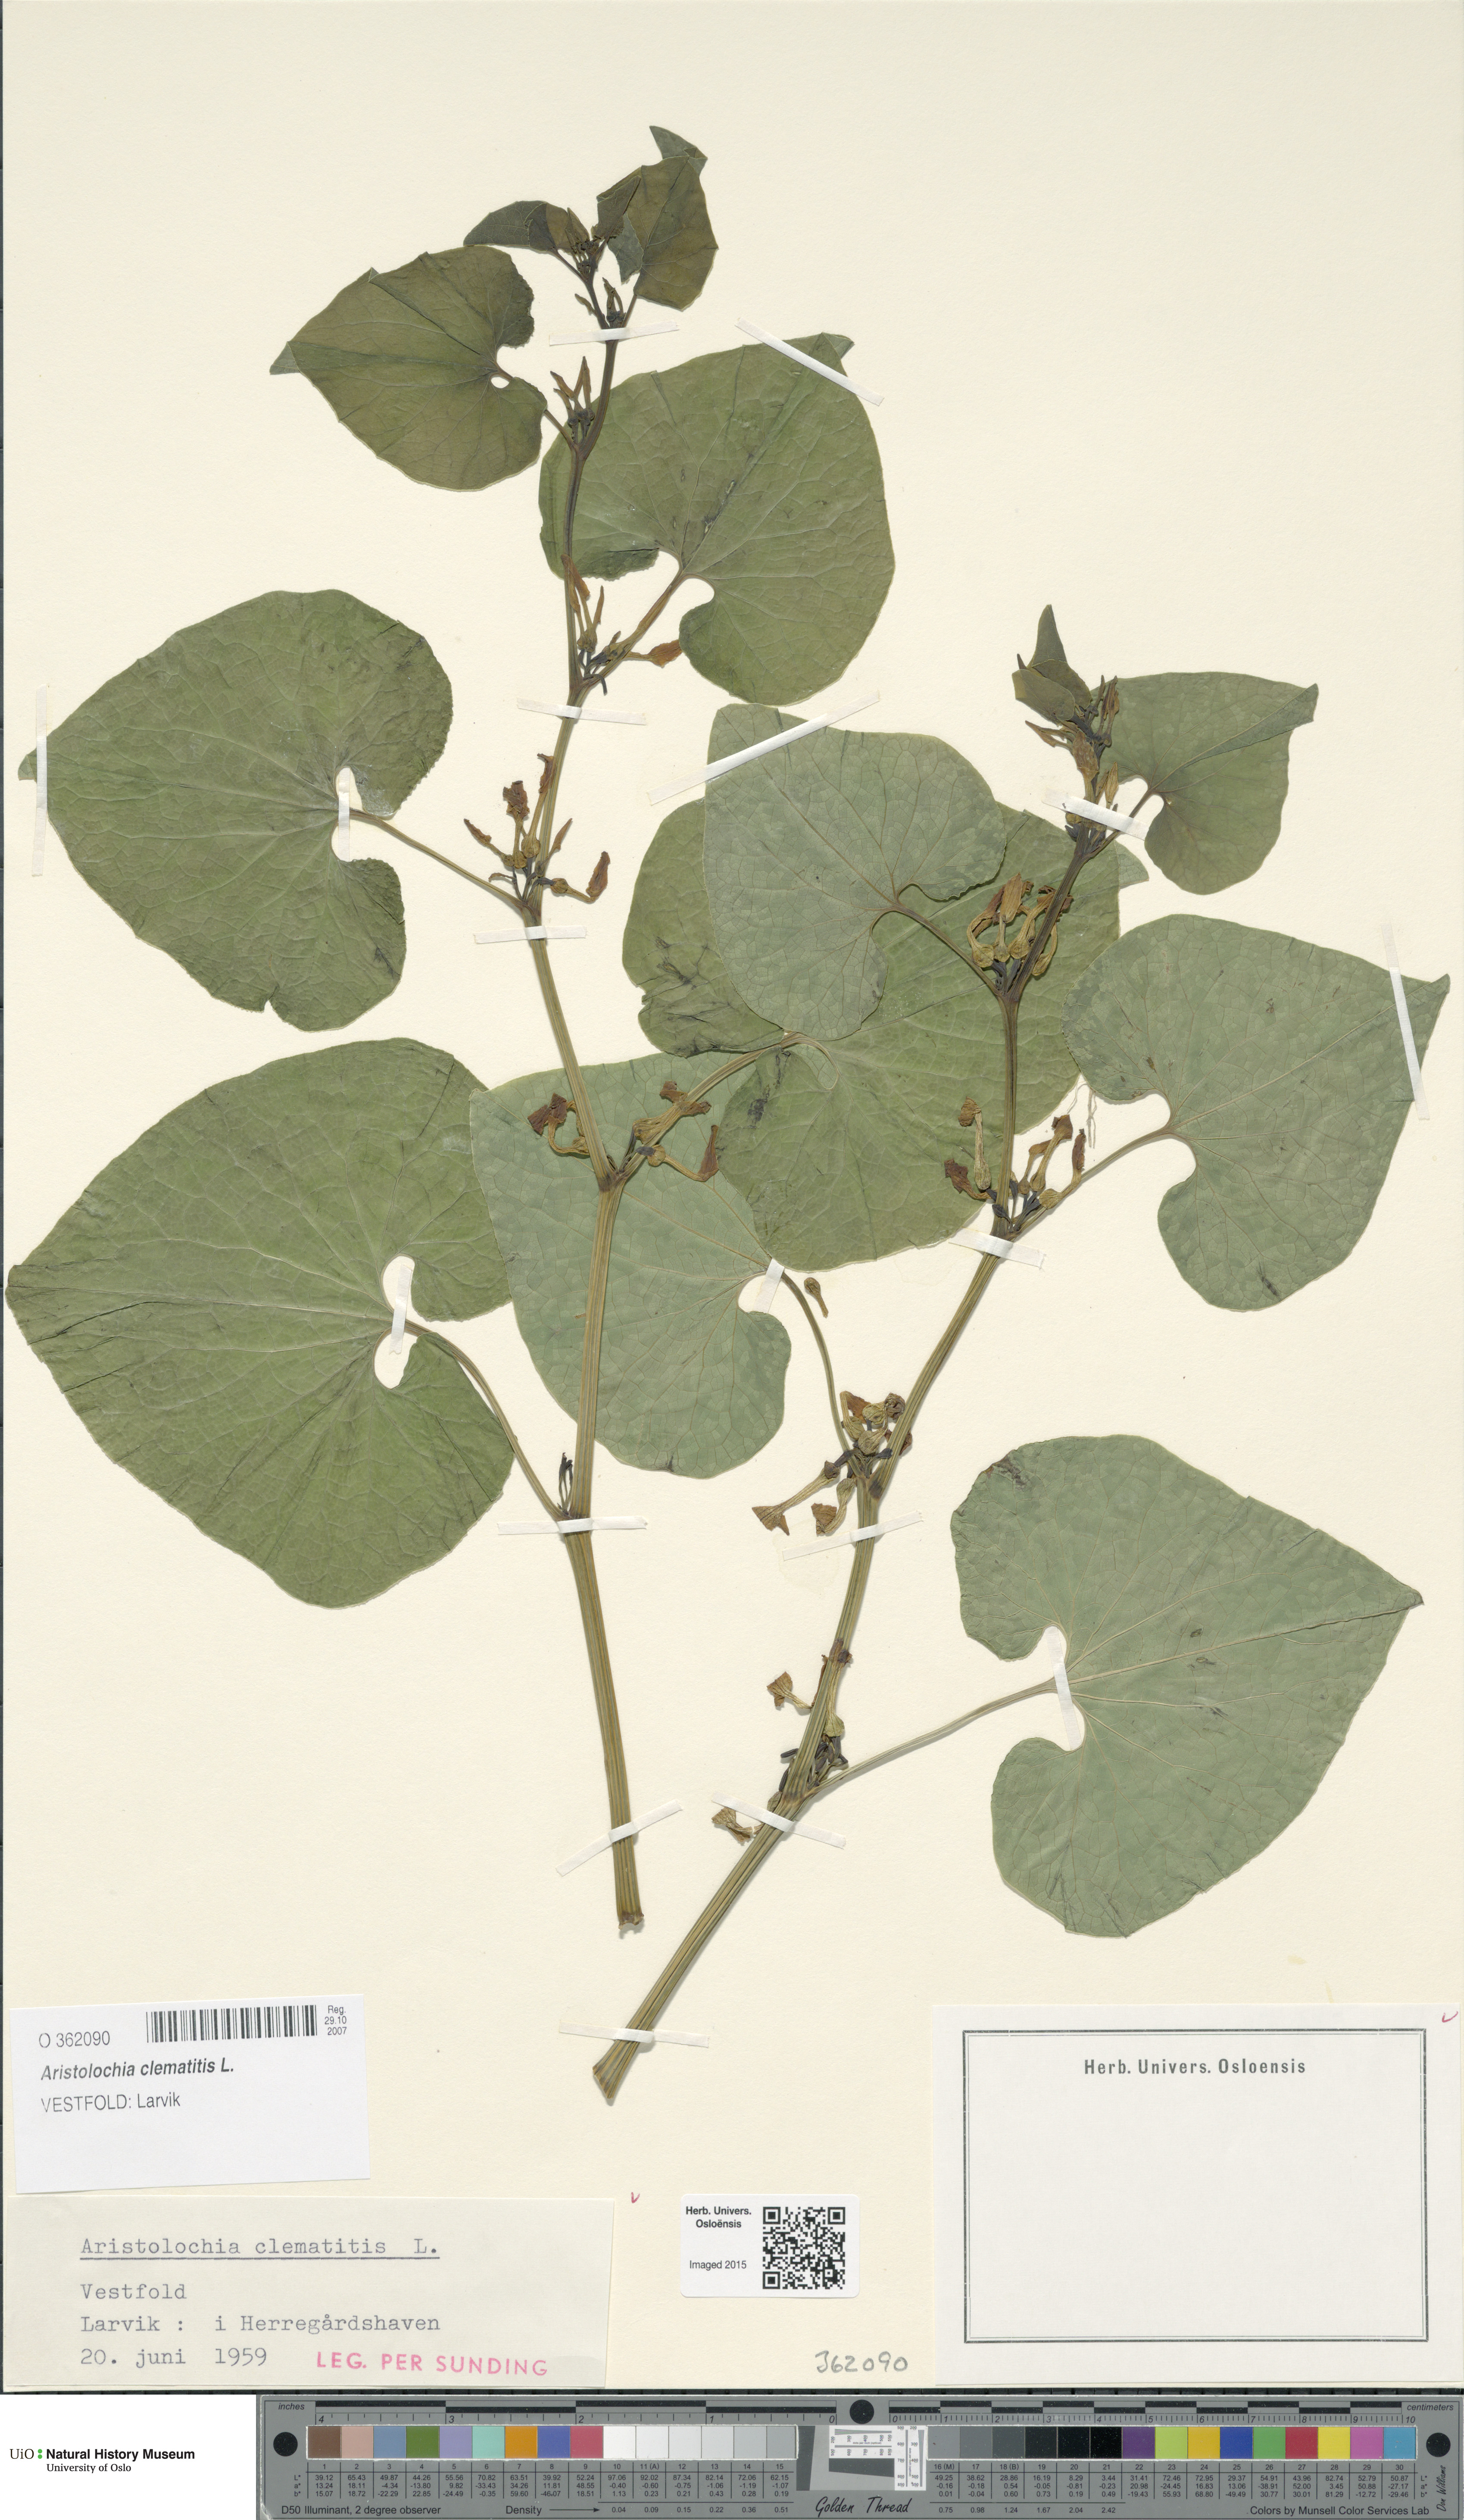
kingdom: Plantae
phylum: Tracheophyta
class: Magnoliopsida
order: Piperales
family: Aristolochiaceae
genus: Aristolochia
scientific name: Aristolochia clematitis
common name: Birthwort
